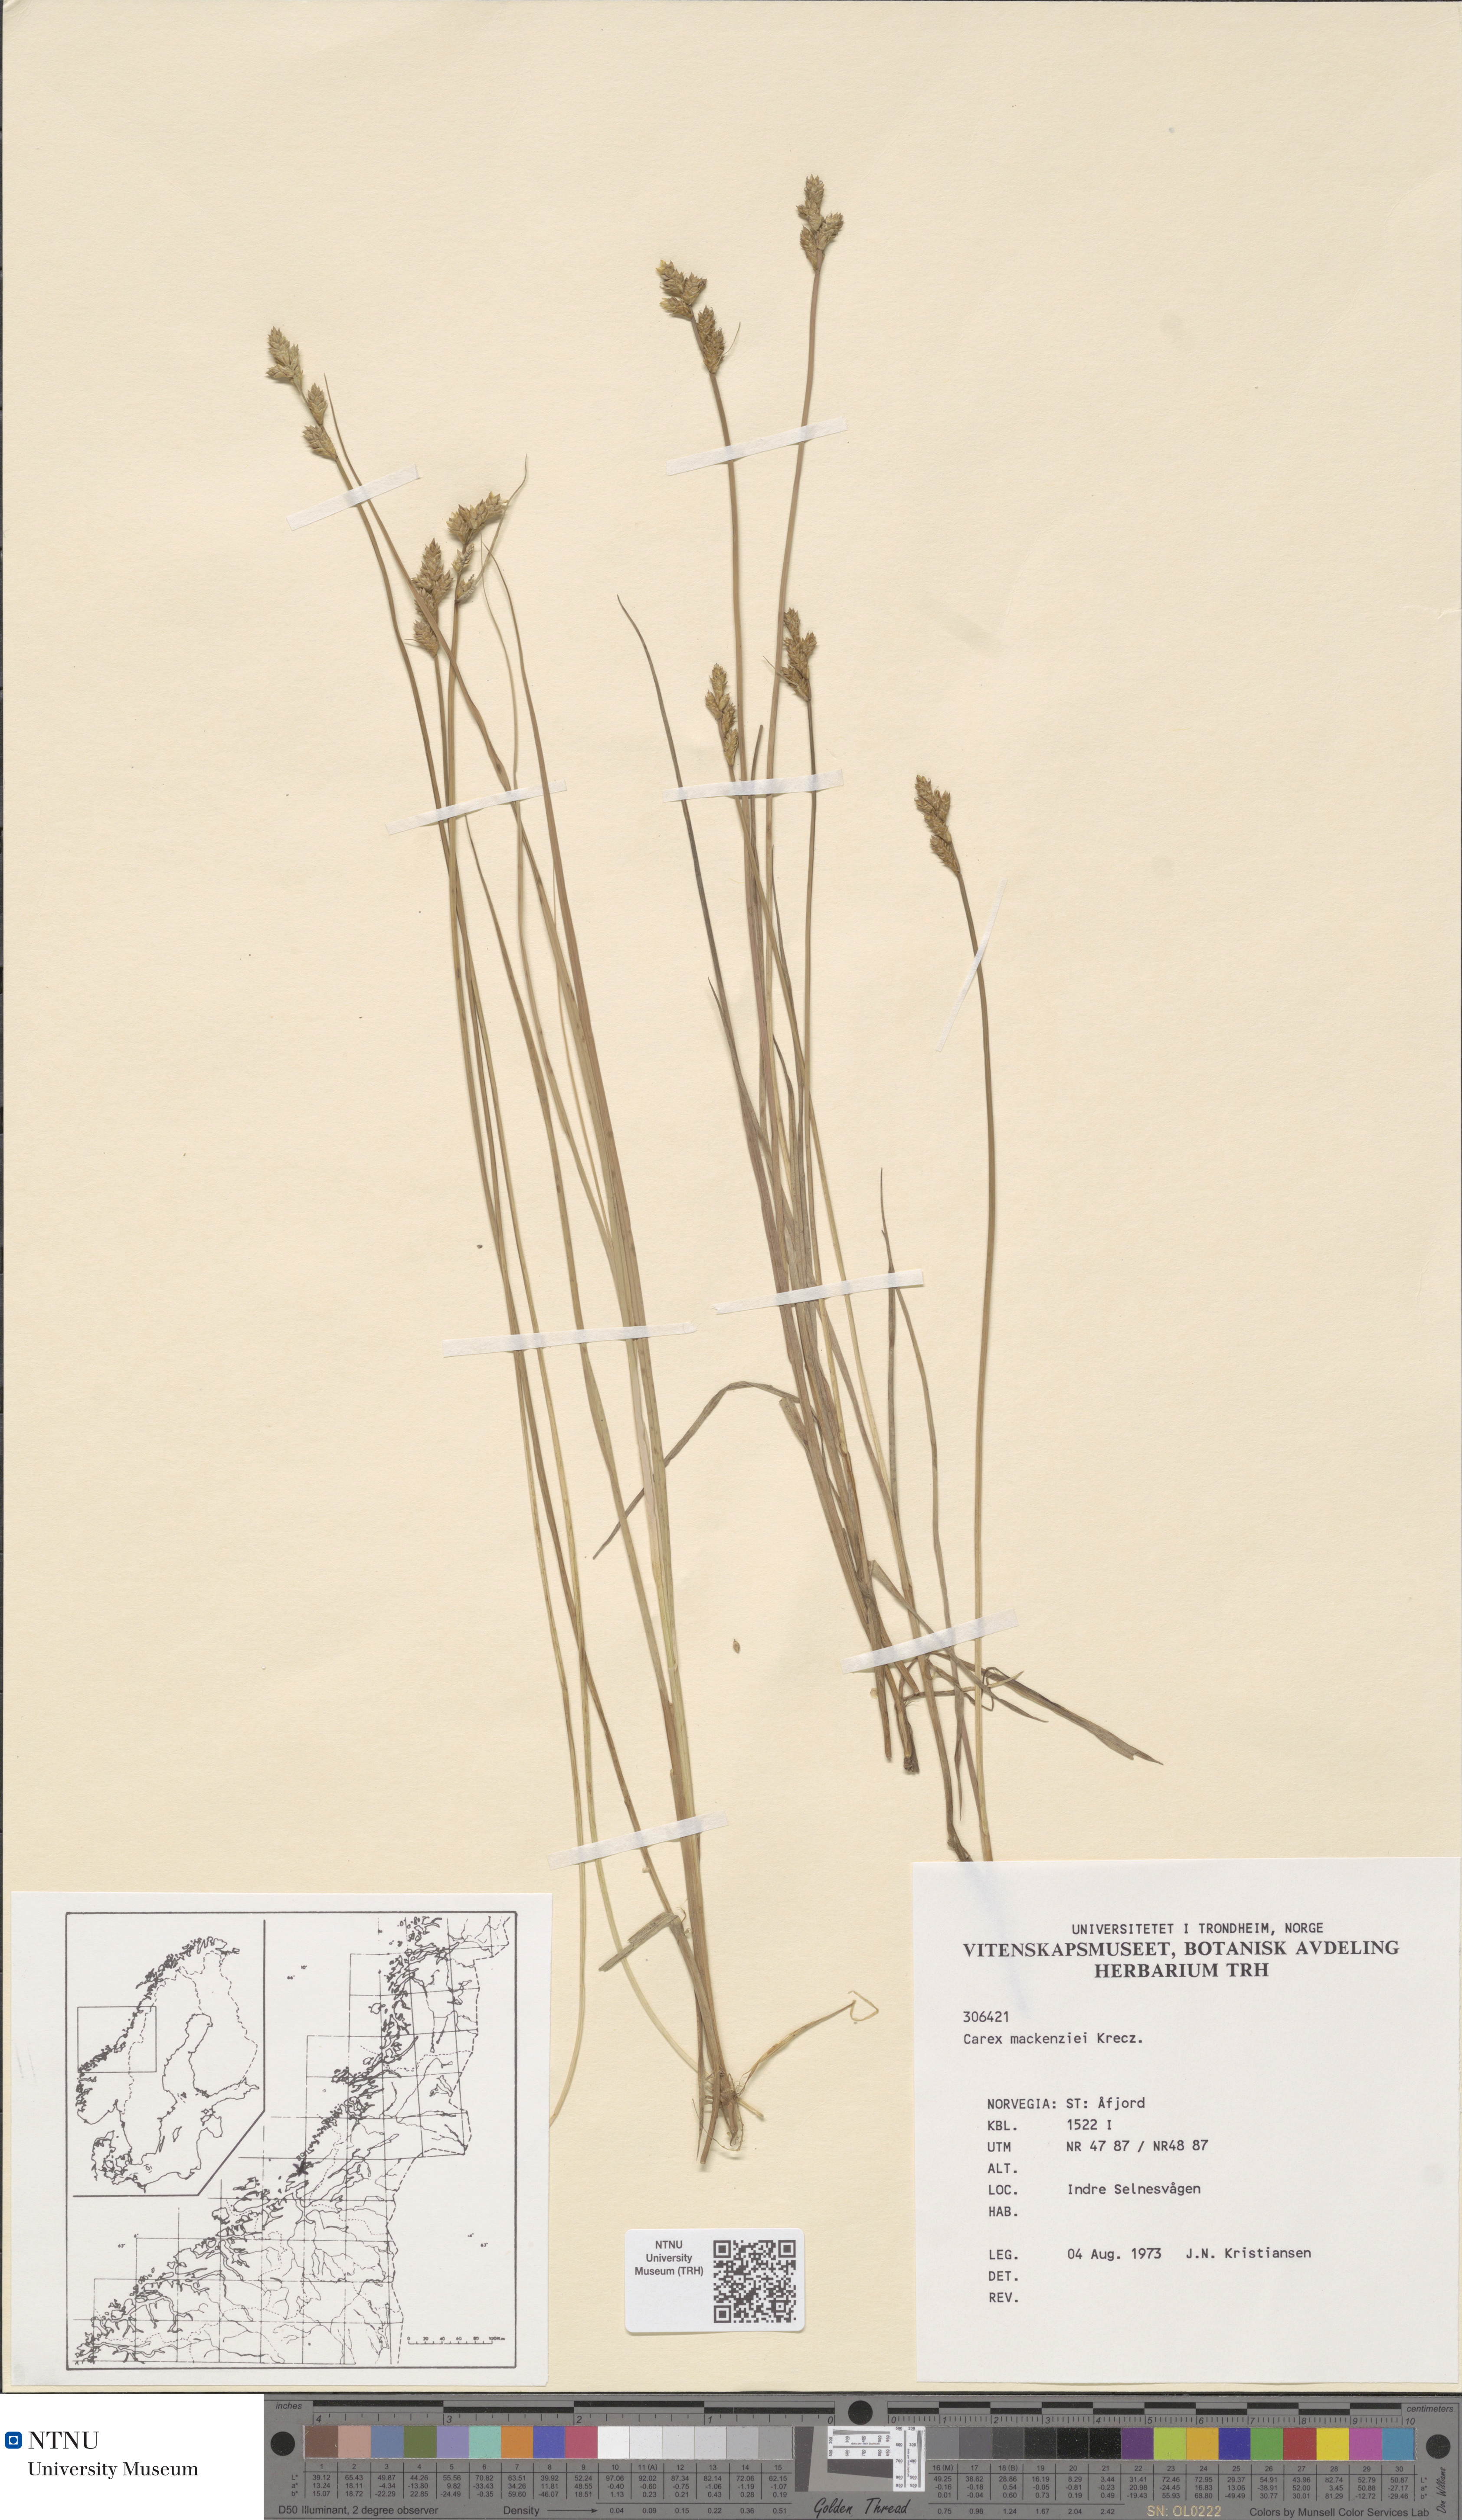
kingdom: Plantae
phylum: Tracheophyta
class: Liliopsida
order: Poales
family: Cyperaceae
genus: Carex
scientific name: Carex mackenziei
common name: Mackenzie's sedge
